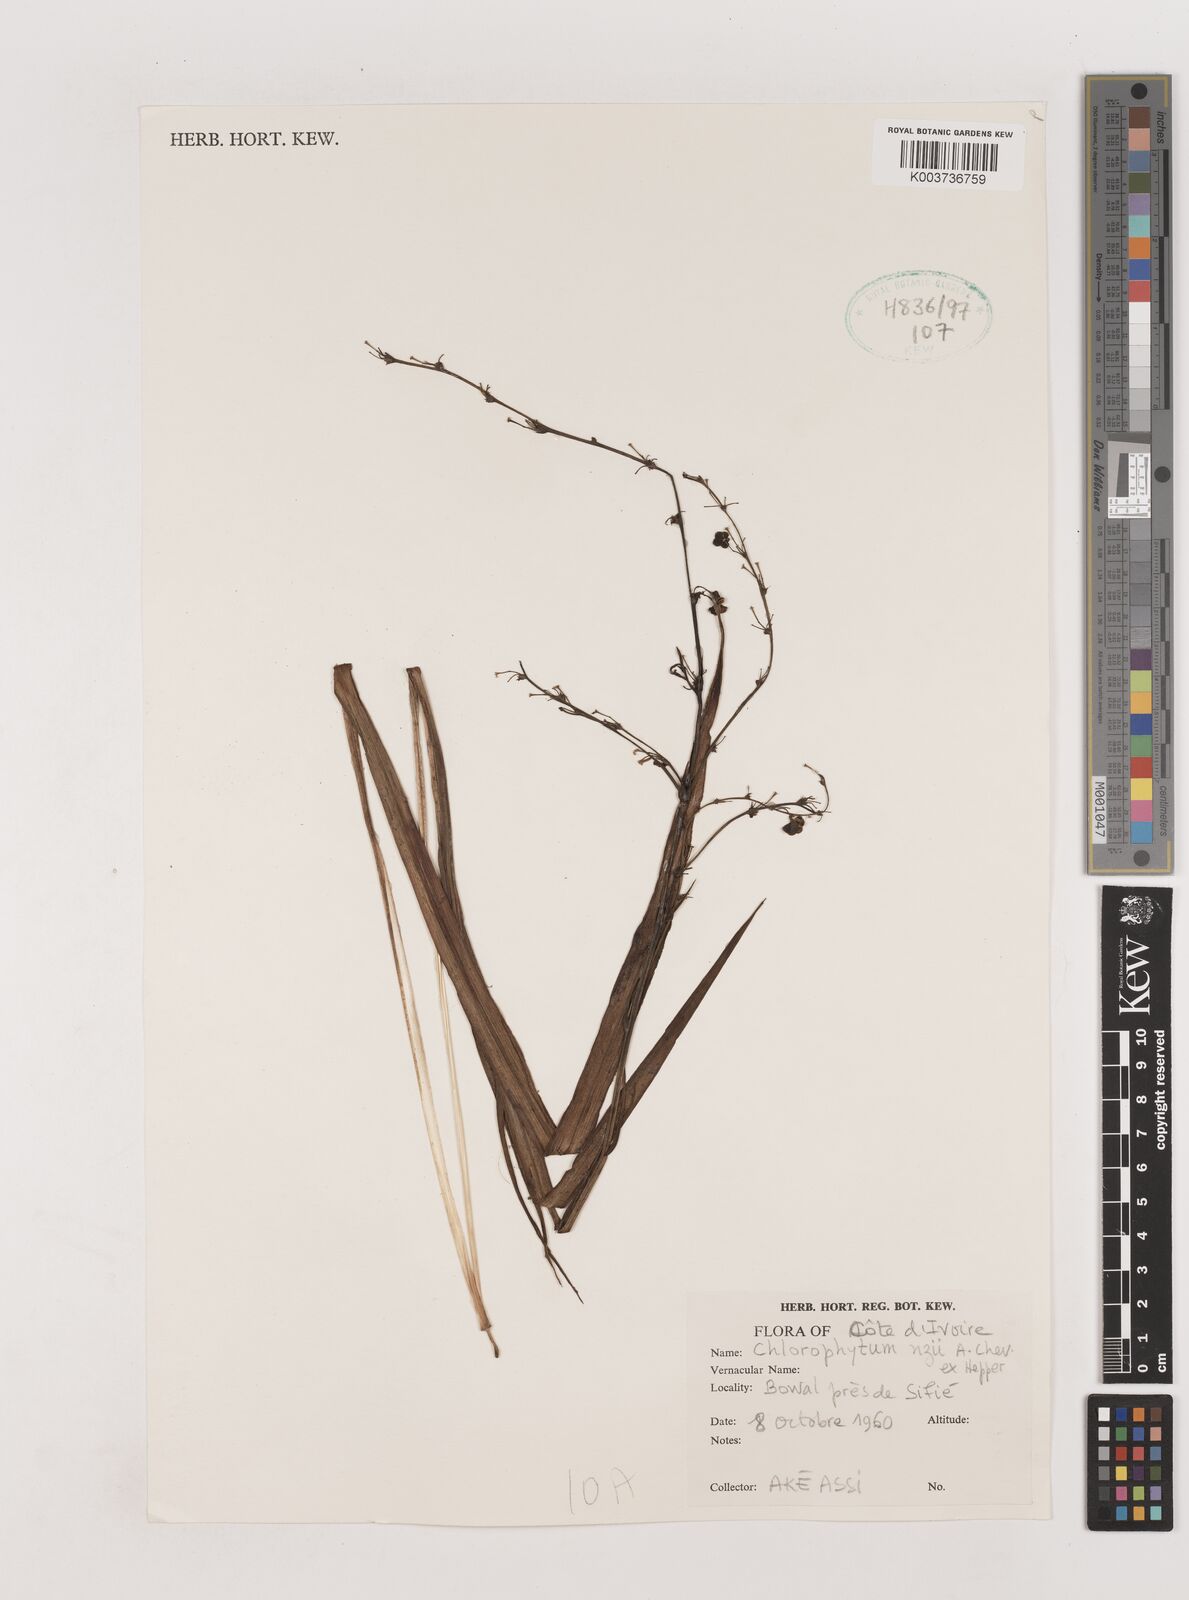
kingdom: Plantae
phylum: Tracheophyta
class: Liliopsida
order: Asparagales
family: Asparagaceae
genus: Chlorophytum
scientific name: Chlorophytum nzii
